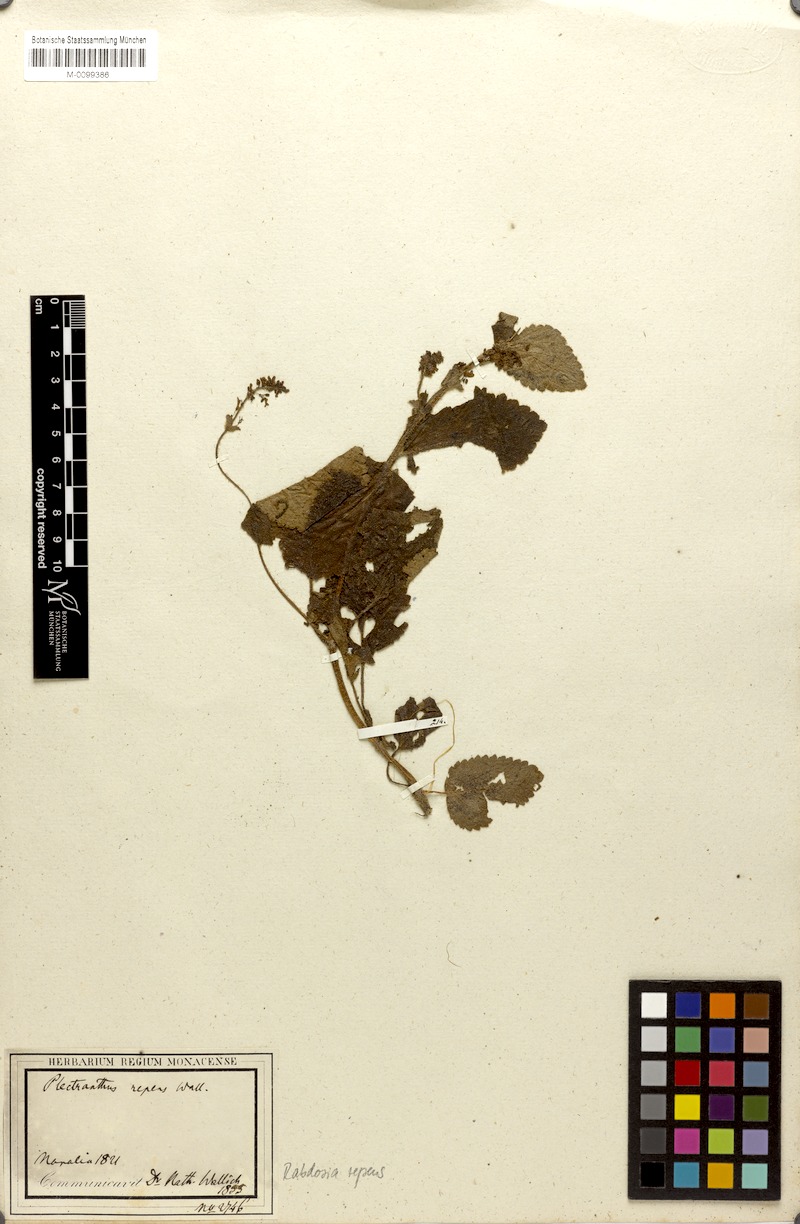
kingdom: Plantae
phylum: Tracheophyta
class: Magnoliopsida
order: Lamiales
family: Lamiaceae
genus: Isodon
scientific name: Isodon repens
